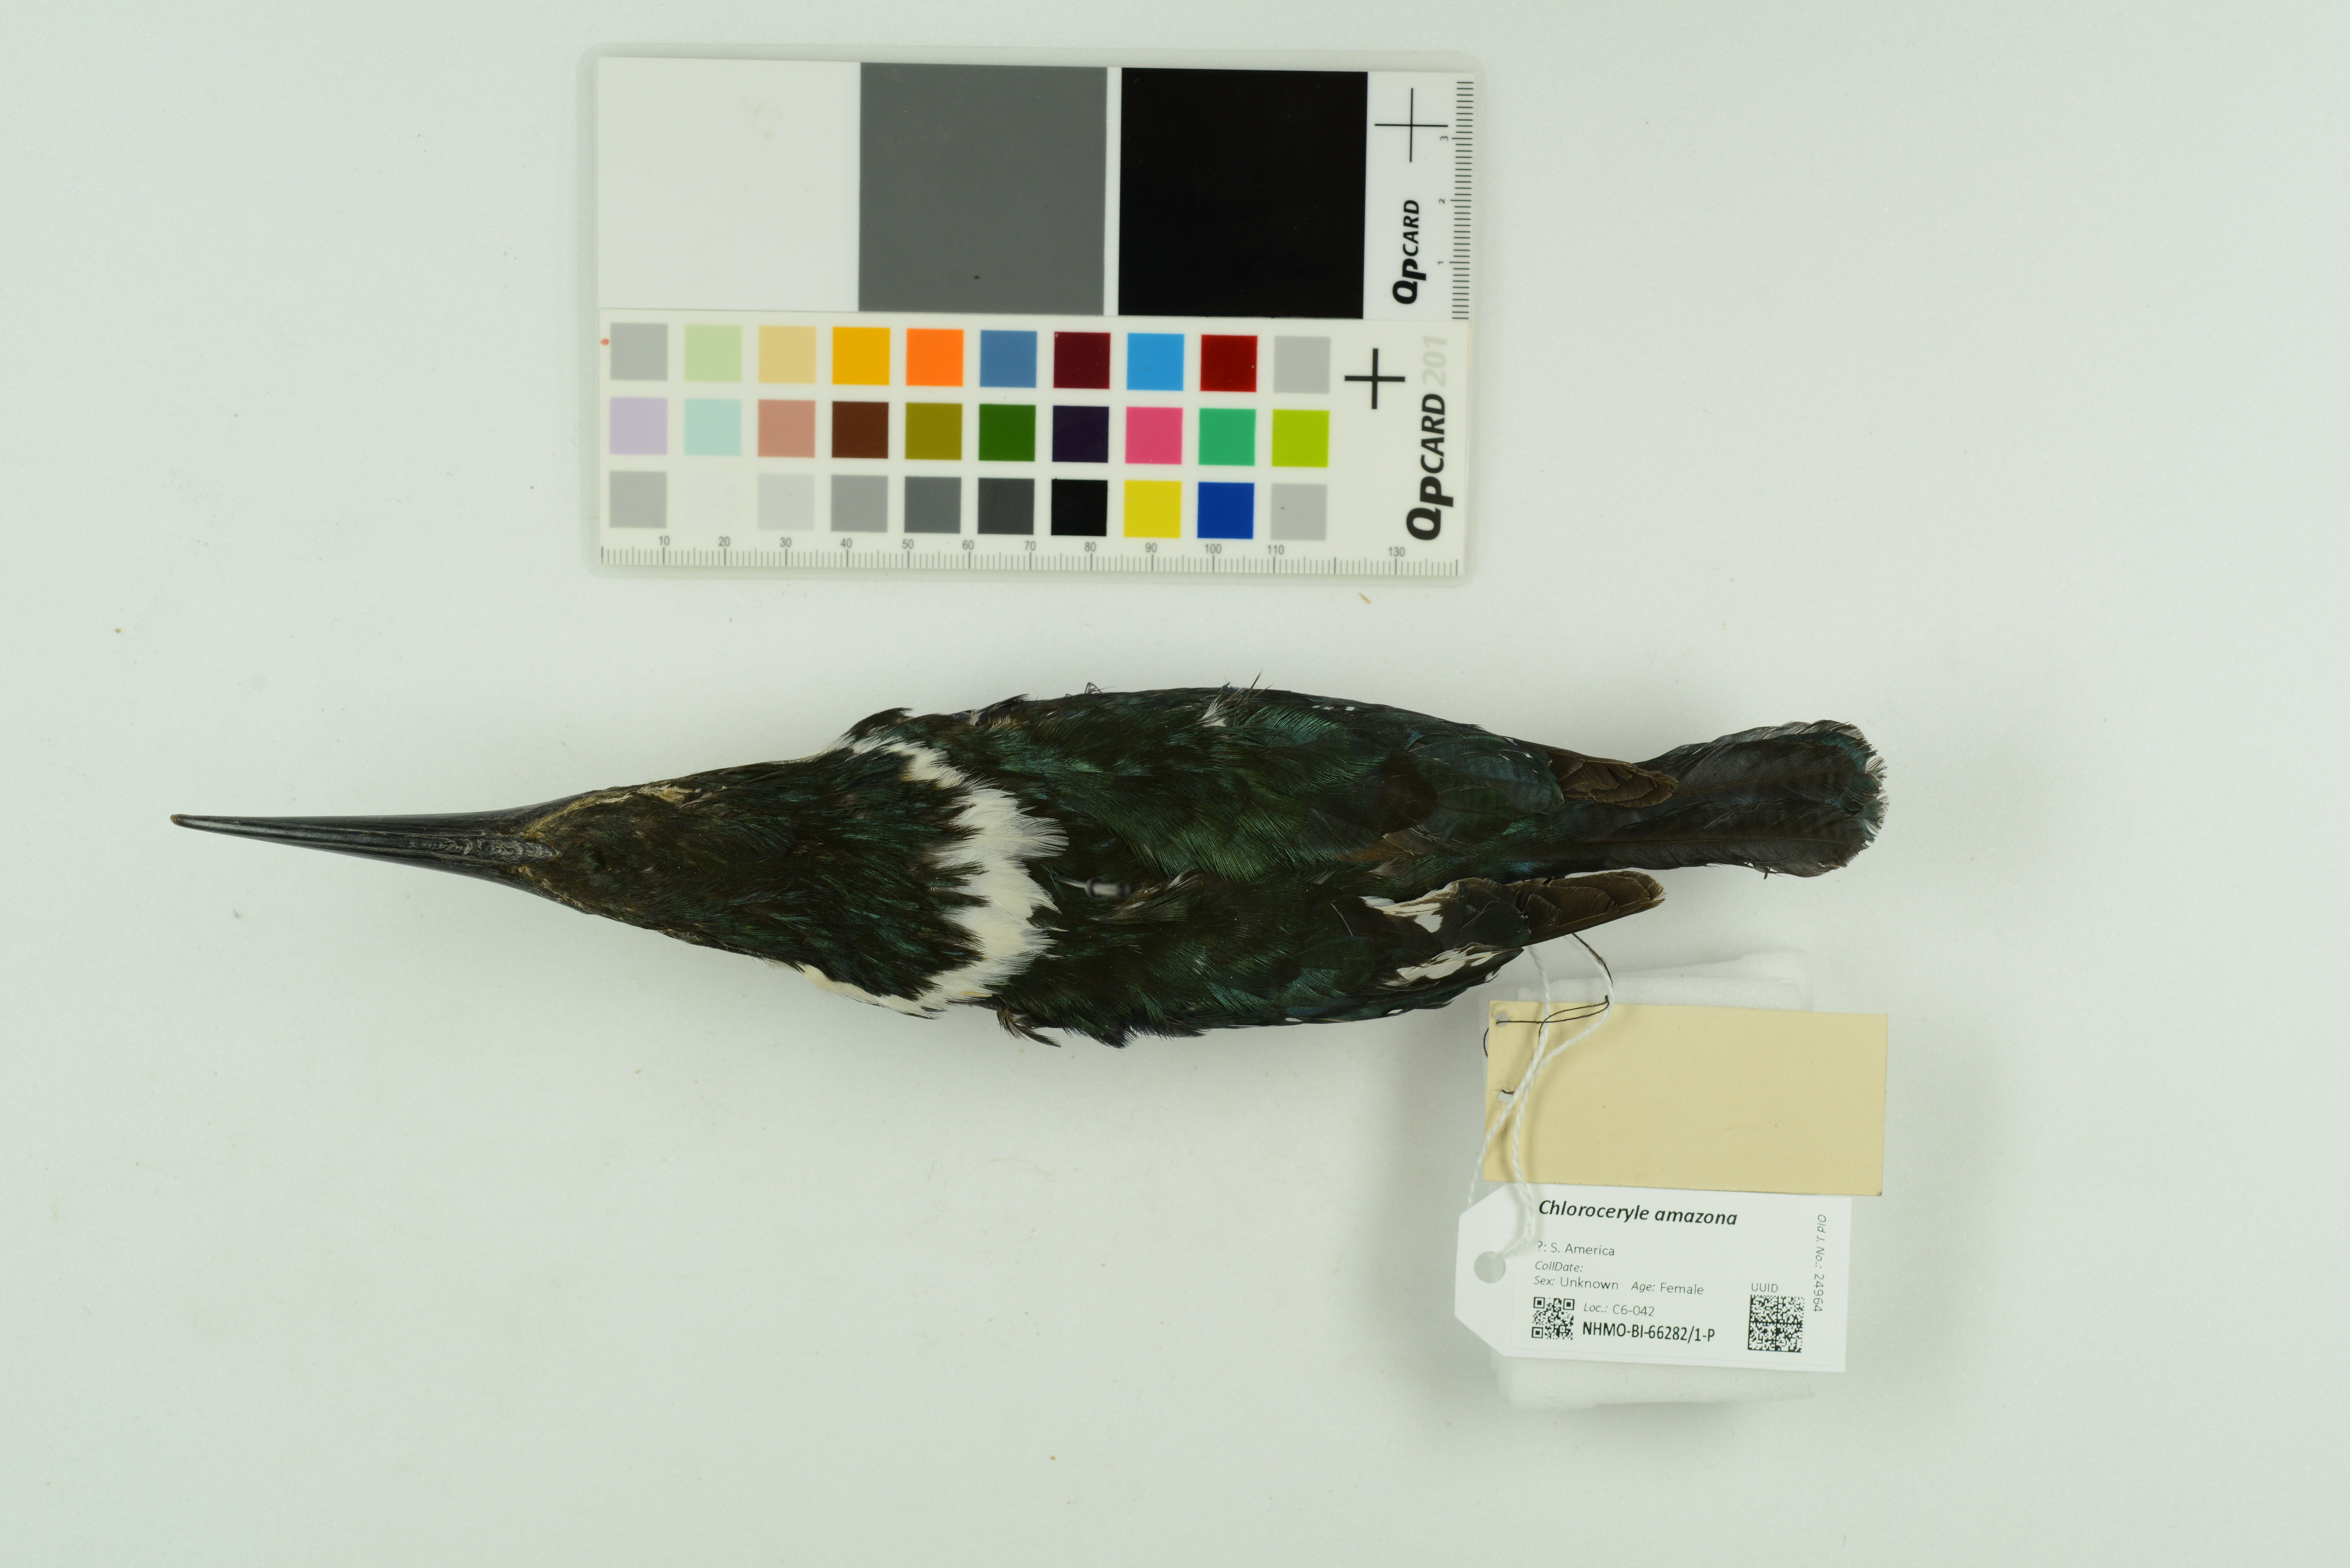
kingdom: Animalia
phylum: Chordata
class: Aves
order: Coraciiformes
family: Alcedinidae
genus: Chloroceryle
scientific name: Chloroceryle amazona
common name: Amazon kingfisher
